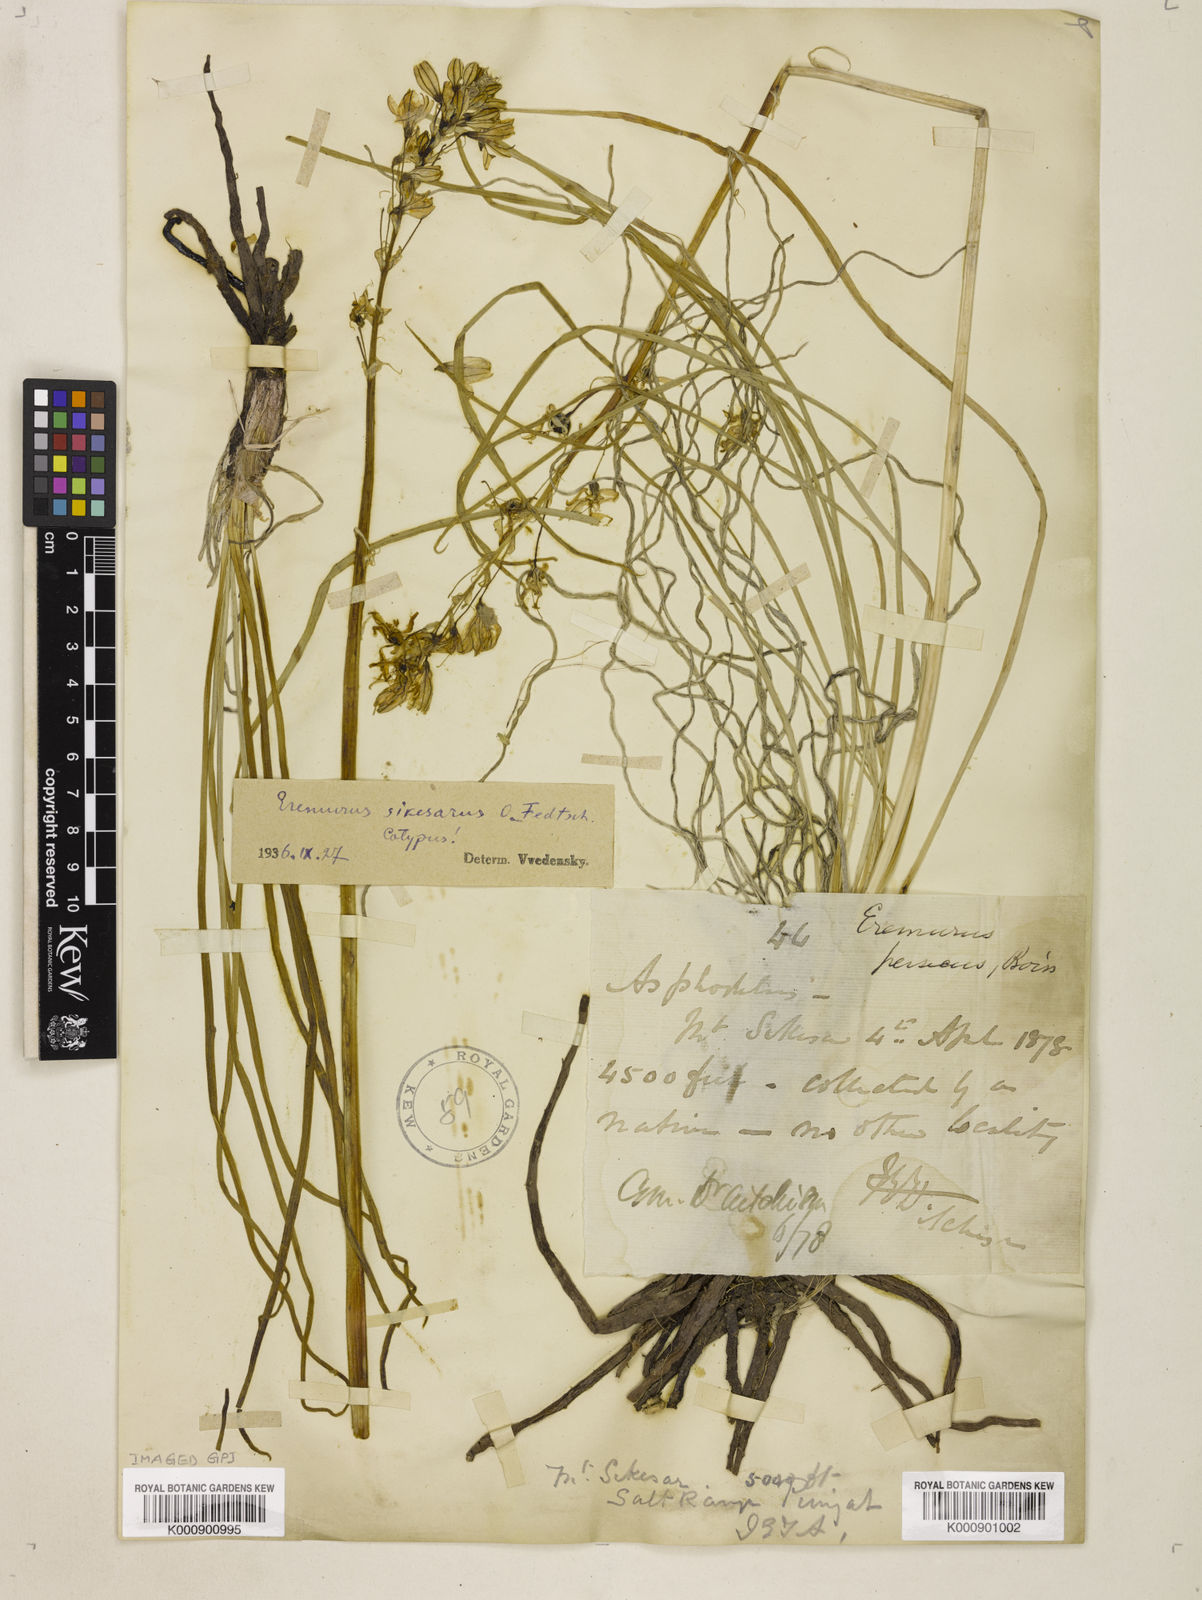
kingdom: Plantae
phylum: Tracheophyta
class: Liliopsida
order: Asparagales
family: Asphodelaceae
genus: Eremurus
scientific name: Eremurus persicus
